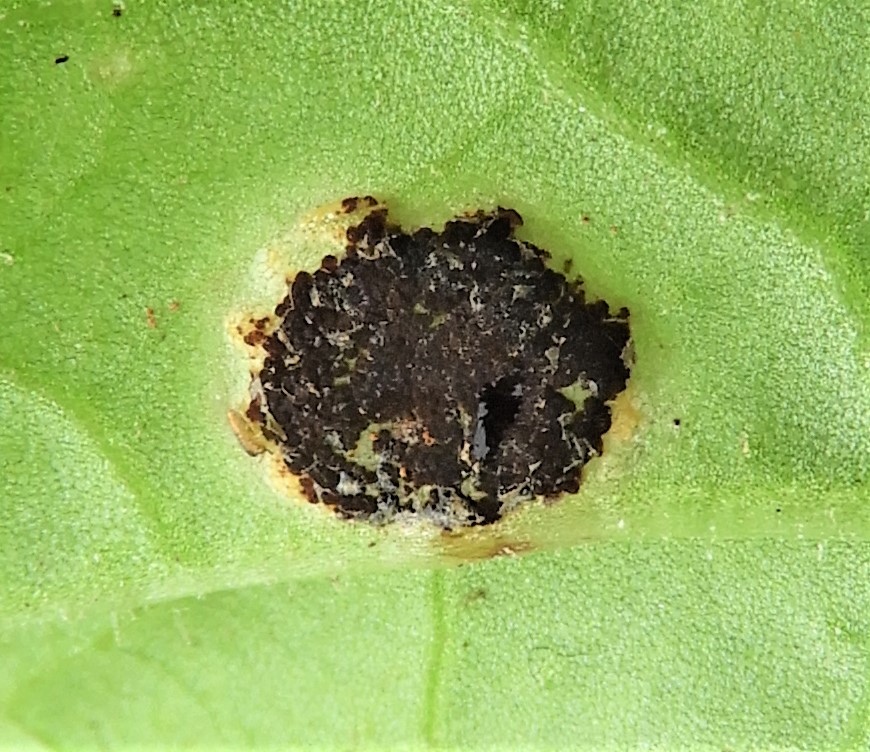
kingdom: Fungi
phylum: Basidiomycota
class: Pucciniomycetes
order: Pucciniales
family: Pucciniaceae
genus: Puccinia
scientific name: Puccinia cnici-oleracei
